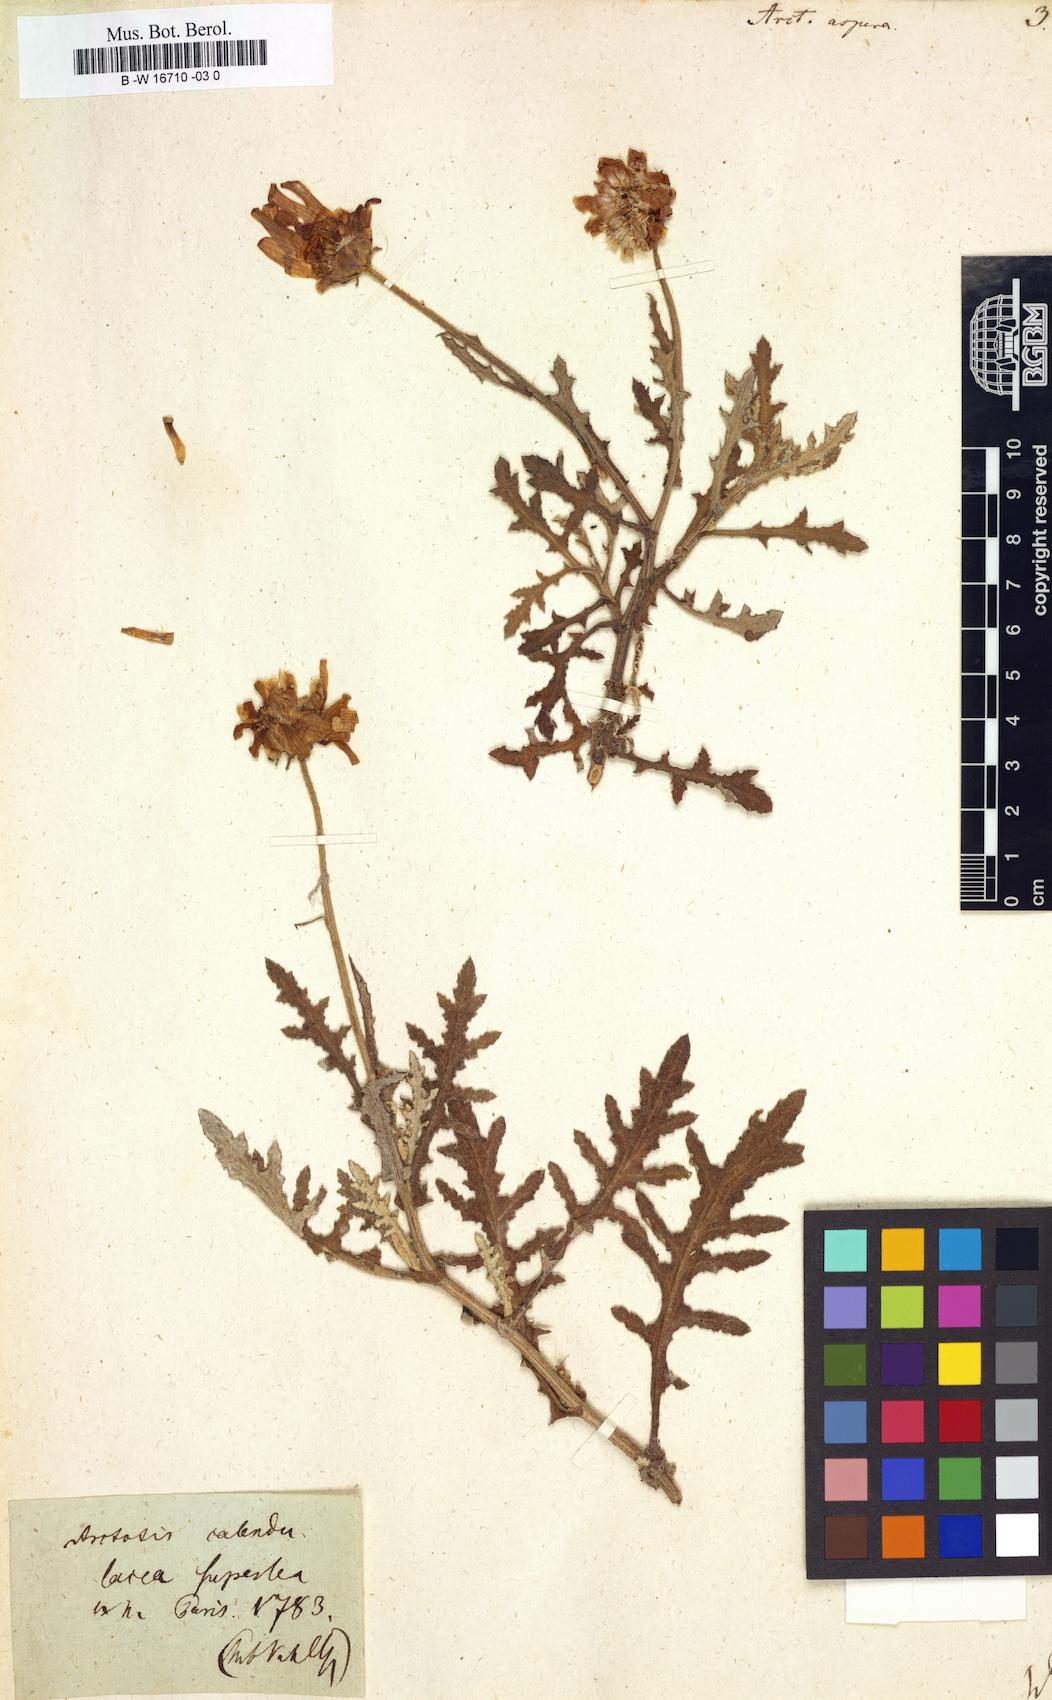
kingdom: Plantae
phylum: Tracheophyta
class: Magnoliopsida
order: Asterales
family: Asteraceae
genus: Arctotis
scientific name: Arctotis aspera
